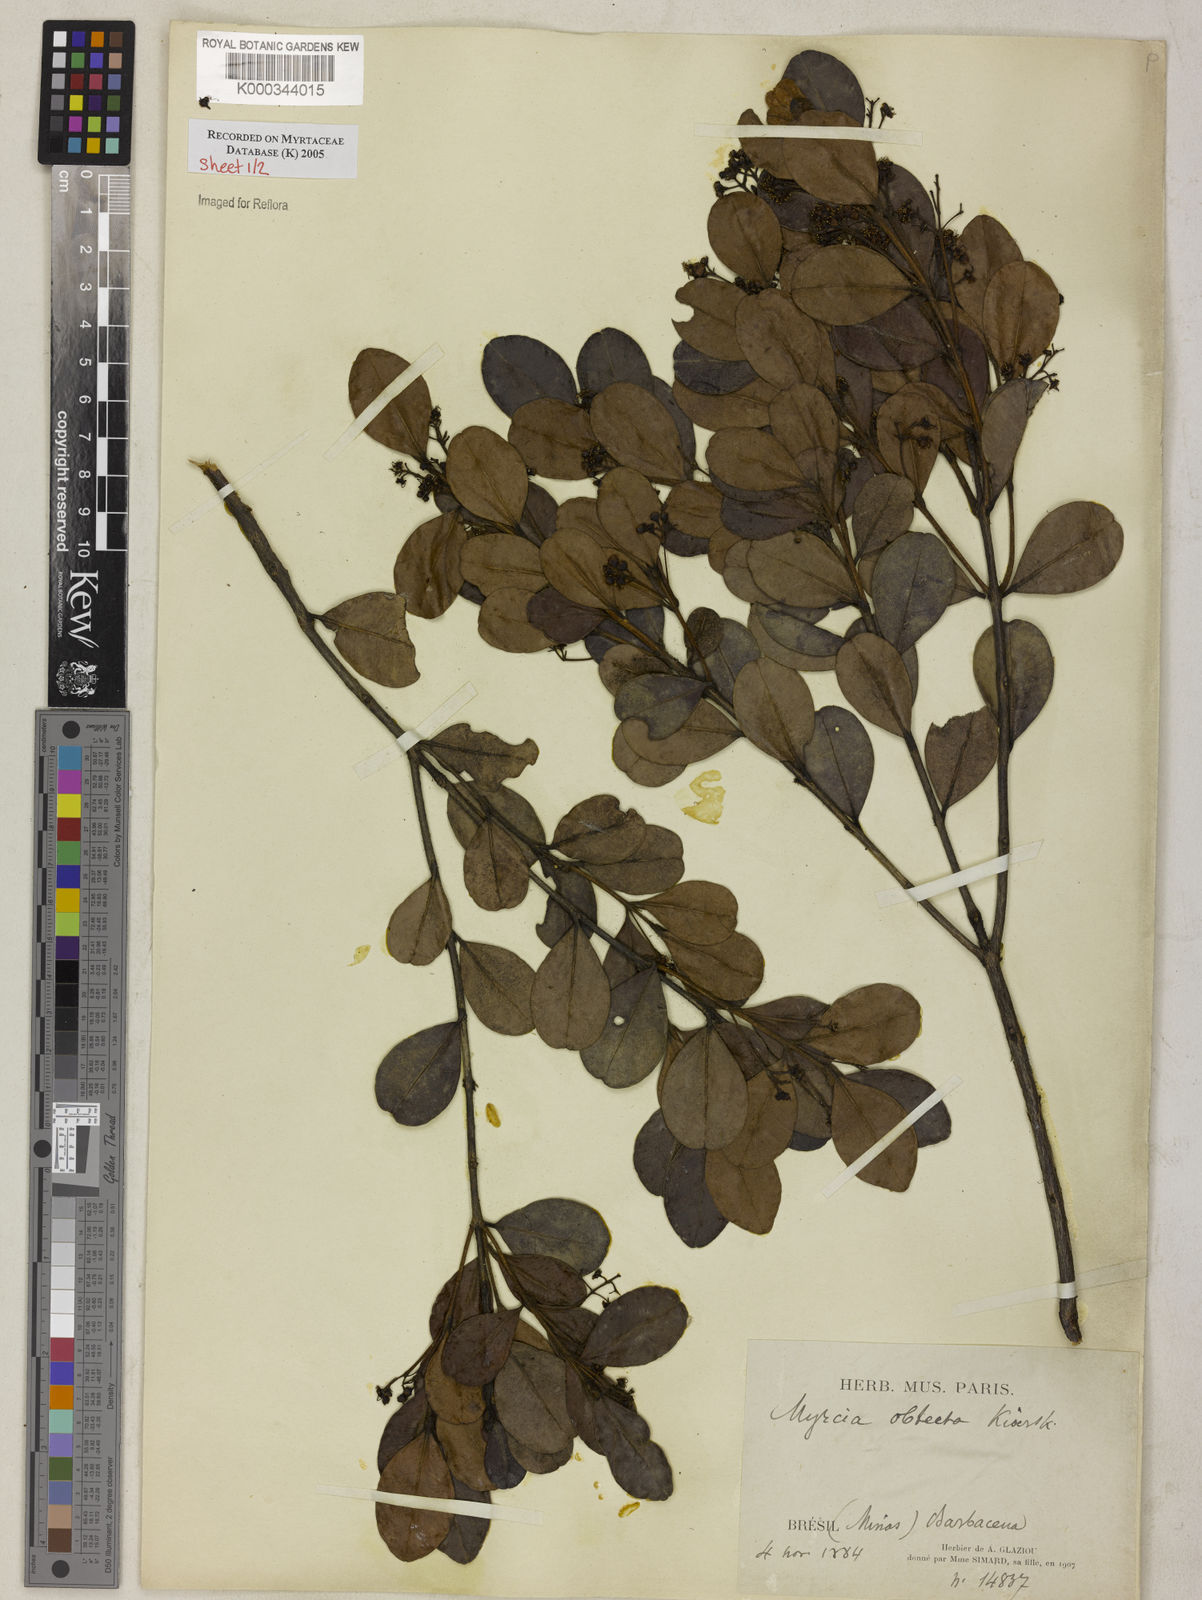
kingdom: Plantae
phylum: Tracheophyta
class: Magnoliopsida
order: Myrtales
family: Myrtaceae
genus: Myrcia
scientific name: Myrcia guianensis
